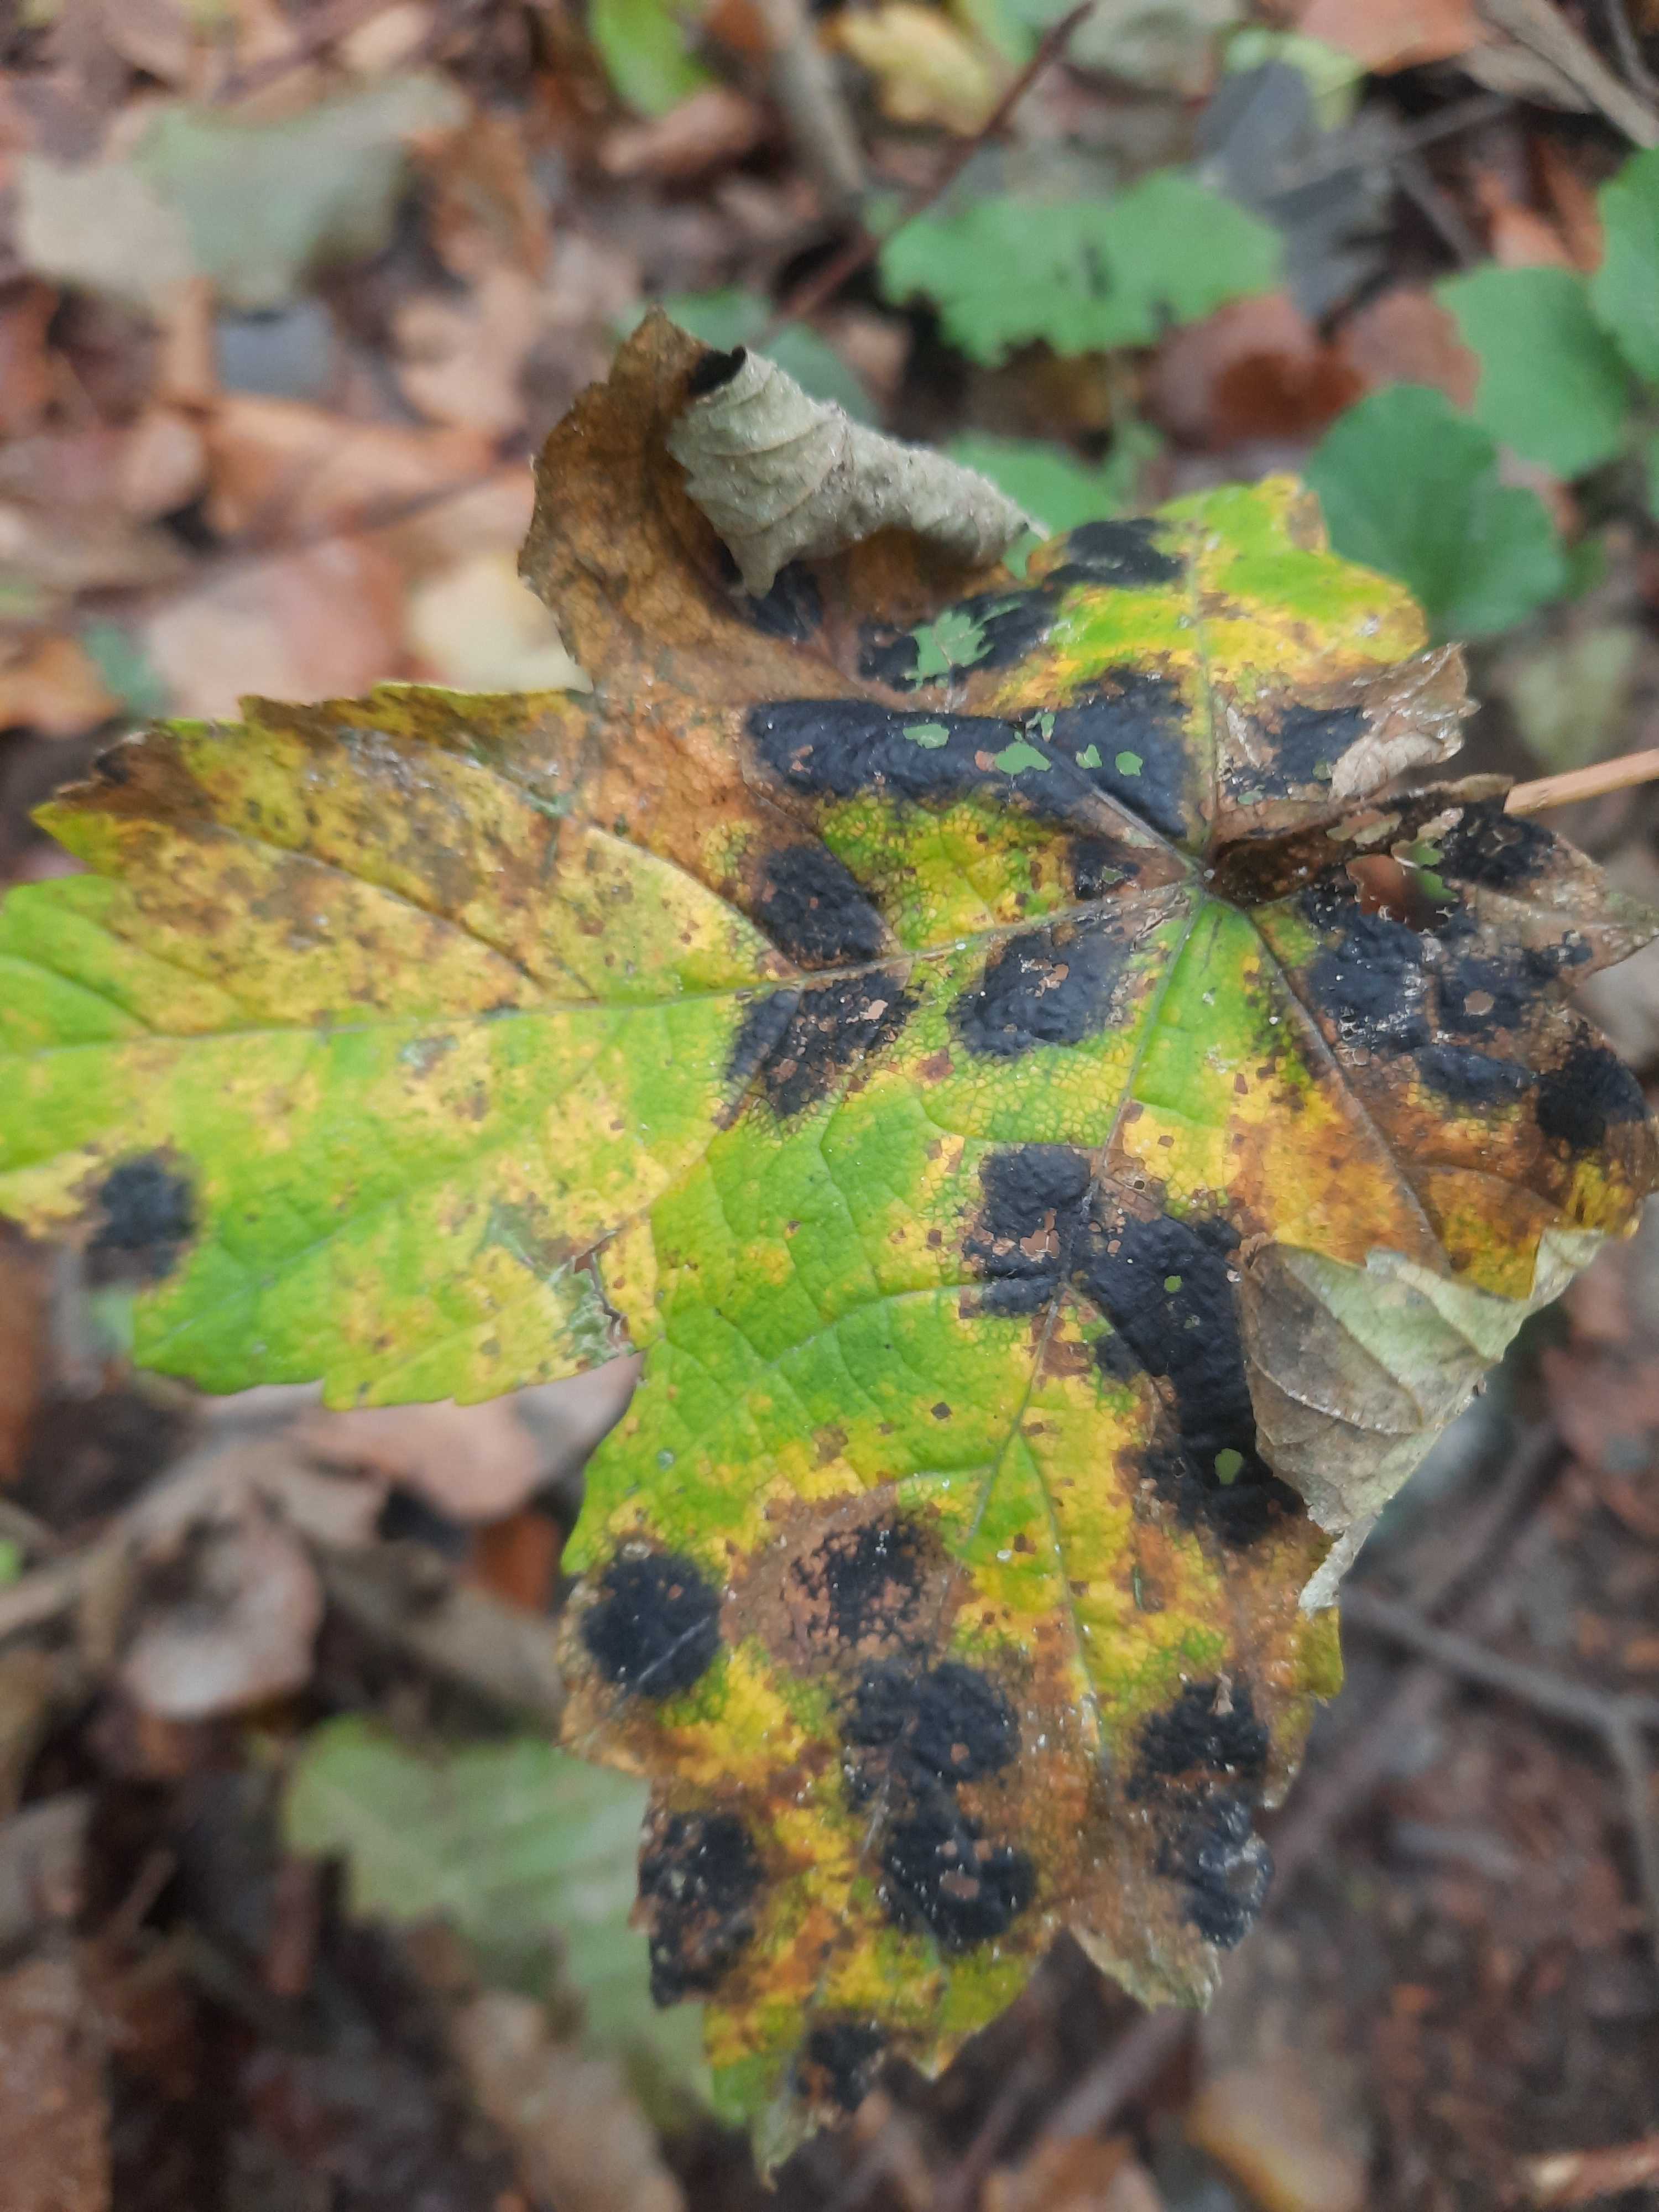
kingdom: Fungi
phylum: Ascomycota
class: Leotiomycetes
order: Rhytismatales
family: Rhytismataceae
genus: Rhytisma
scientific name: Rhytisma acerinum
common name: ahorn-rynkeplet
